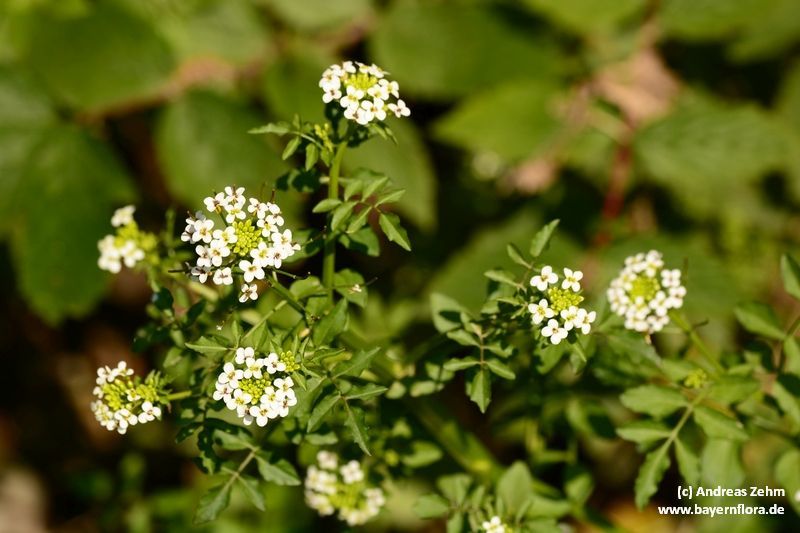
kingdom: Plantae
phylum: Tracheophyta
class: Magnoliopsida
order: Brassicales
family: Brassicaceae
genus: Nasturtium
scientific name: Nasturtium officinale
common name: Watercress
